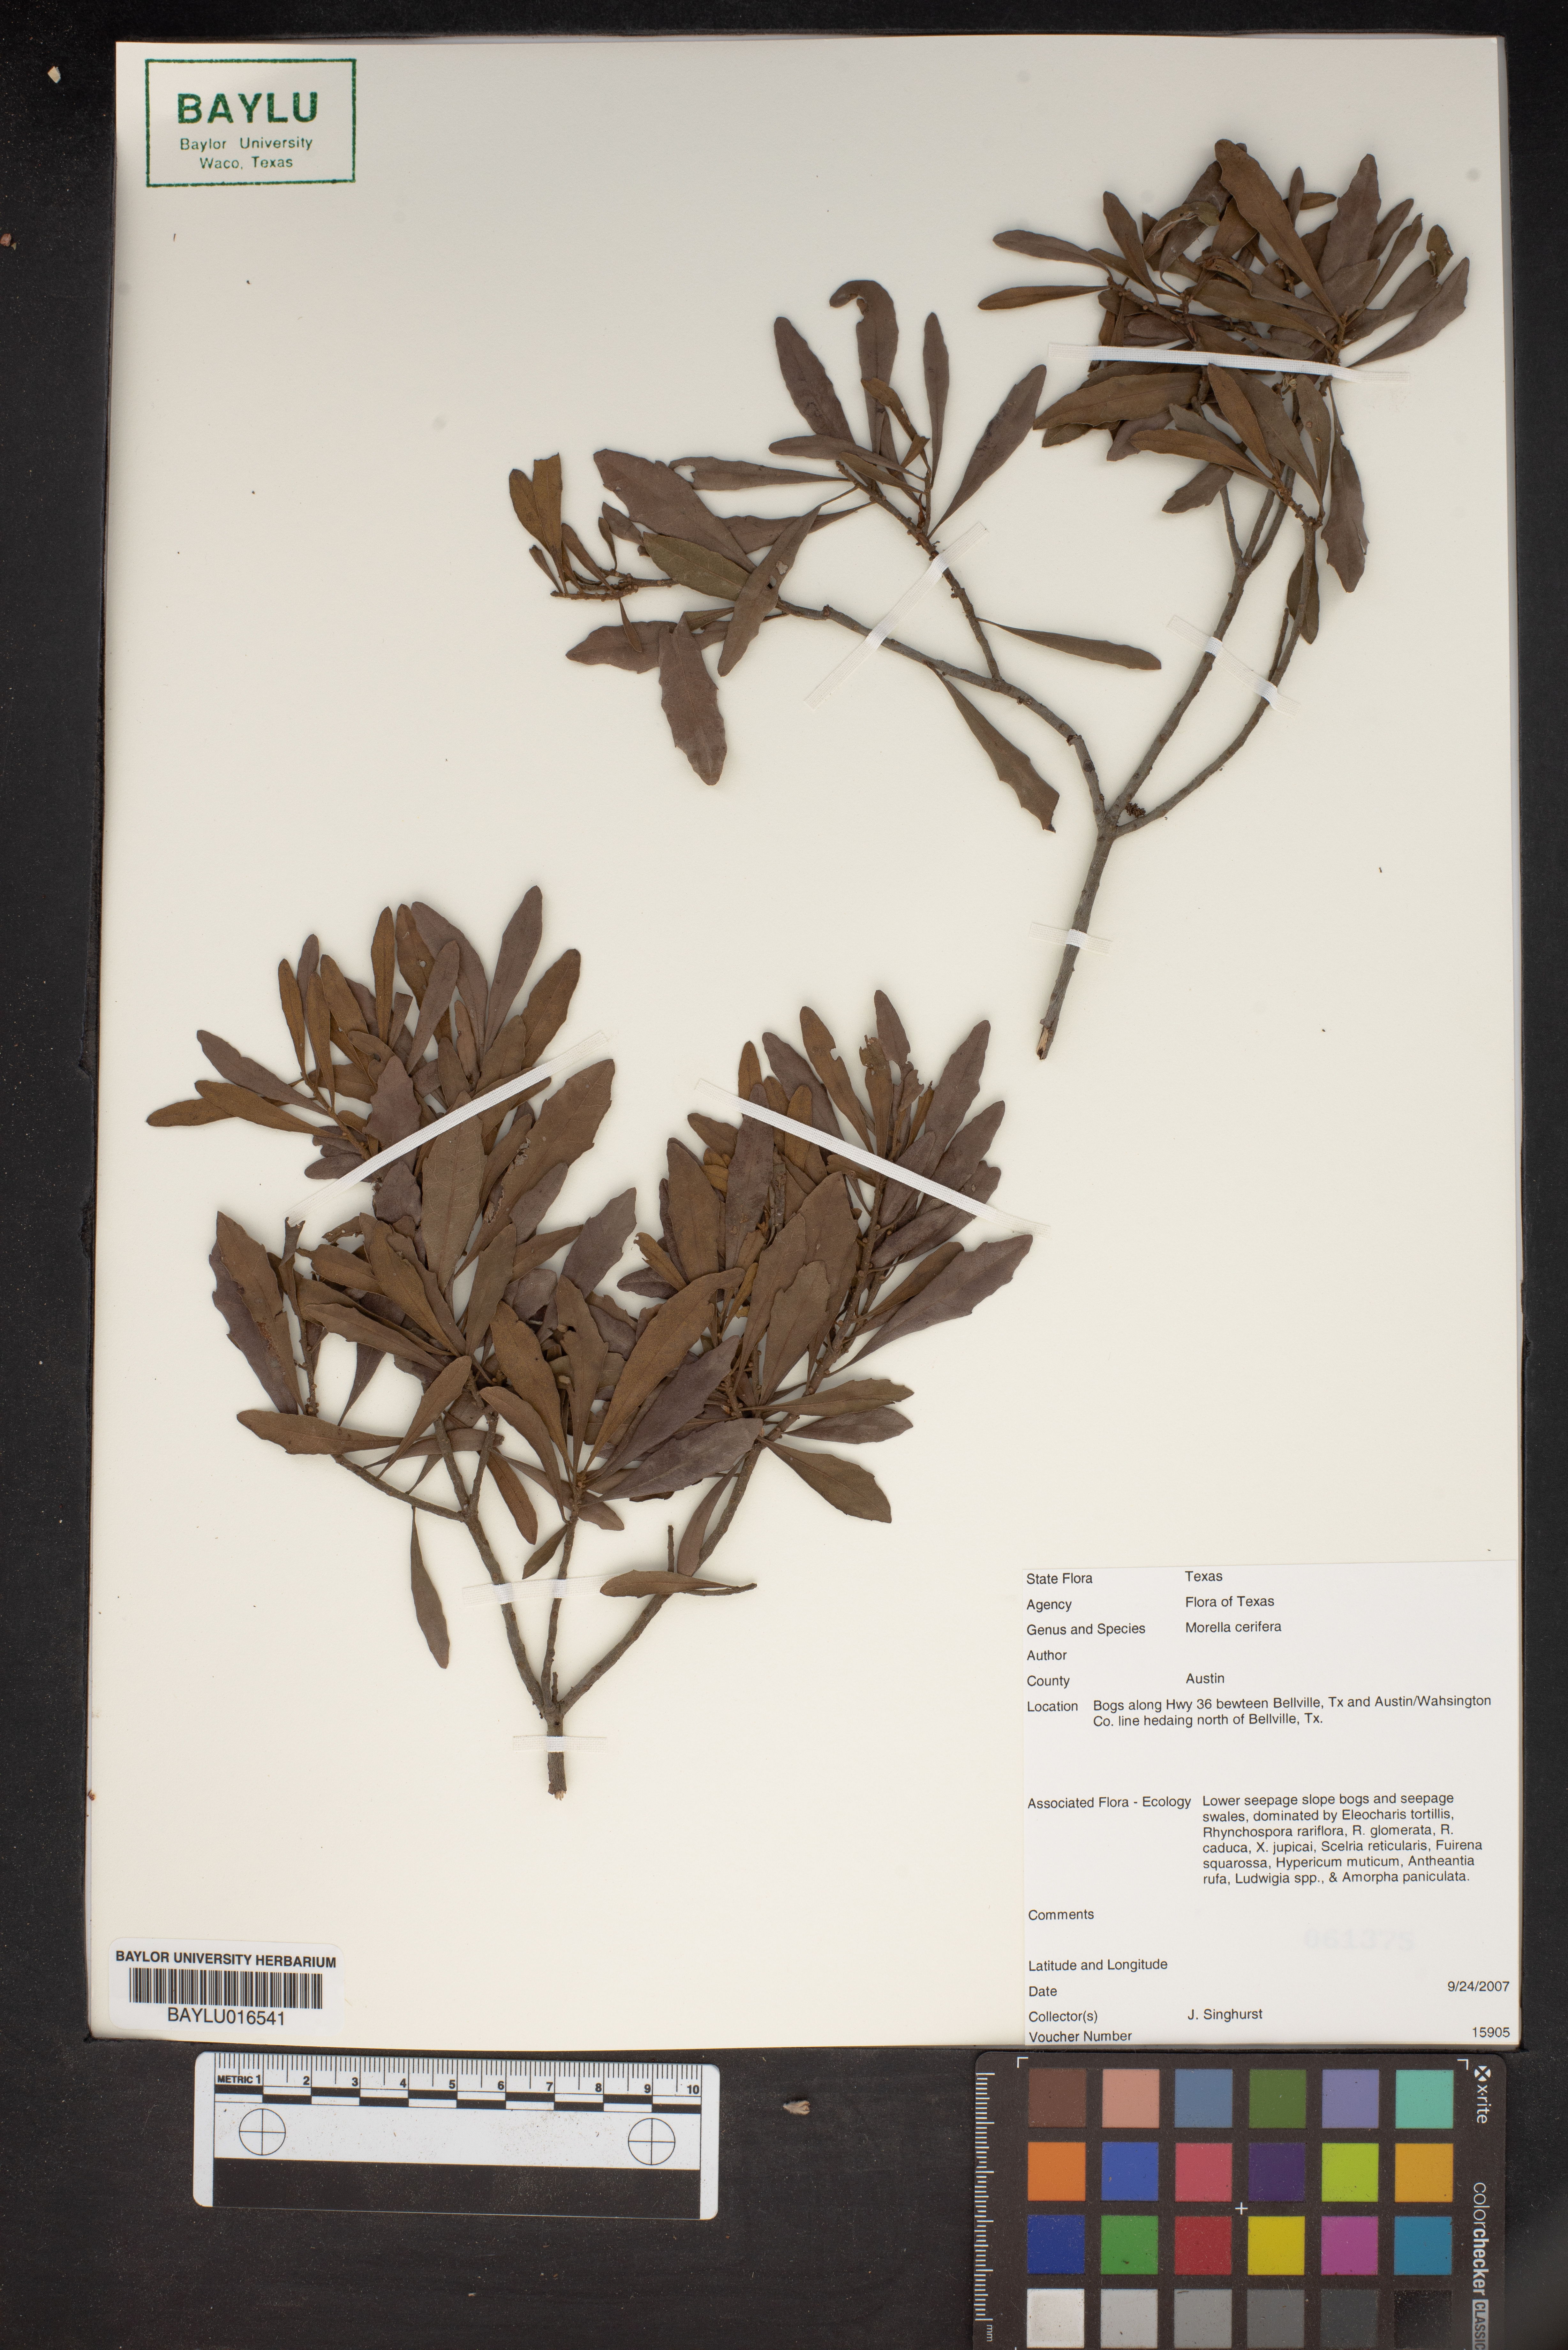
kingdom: Plantae
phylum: Tracheophyta
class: Magnoliopsida
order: Fagales
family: Myricaceae
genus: Morella
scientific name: Morella cerifera
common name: Wax myrtle
